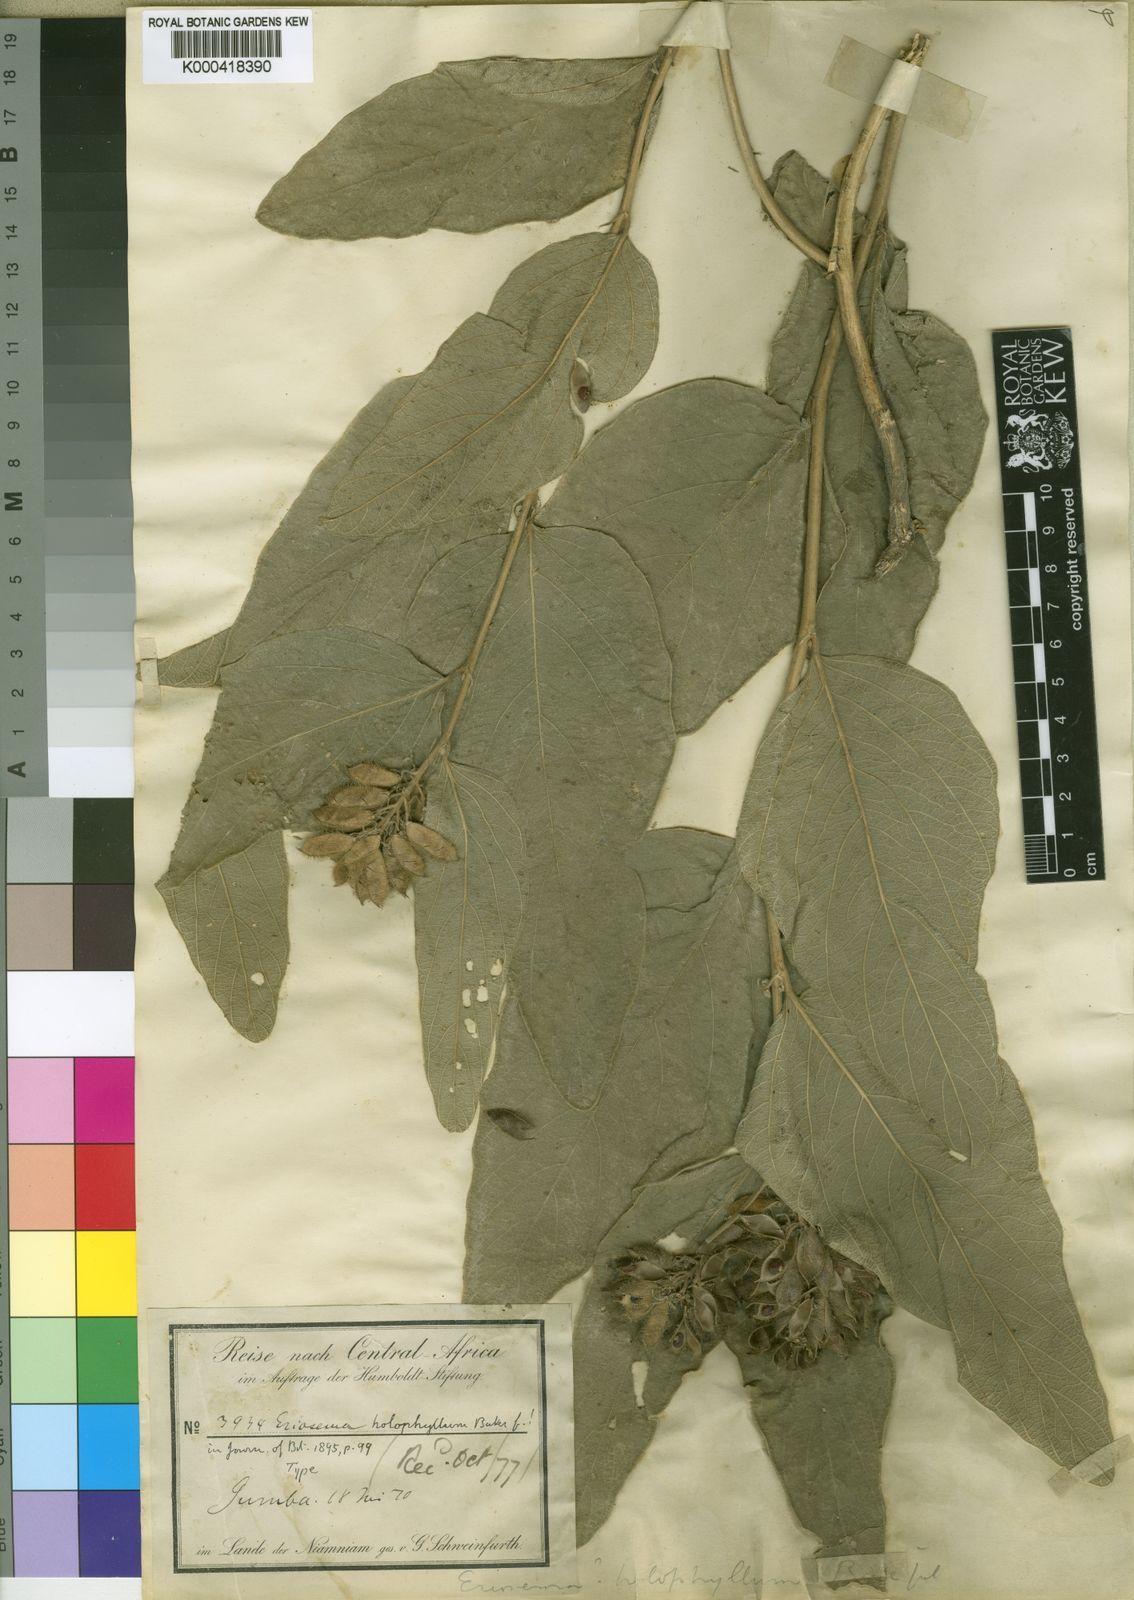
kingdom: Plantae
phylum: Tracheophyta
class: Magnoliopsida
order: Fabales
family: Fabaceae
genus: Pseudoeriosema
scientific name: Pseudoeriosema andongense
